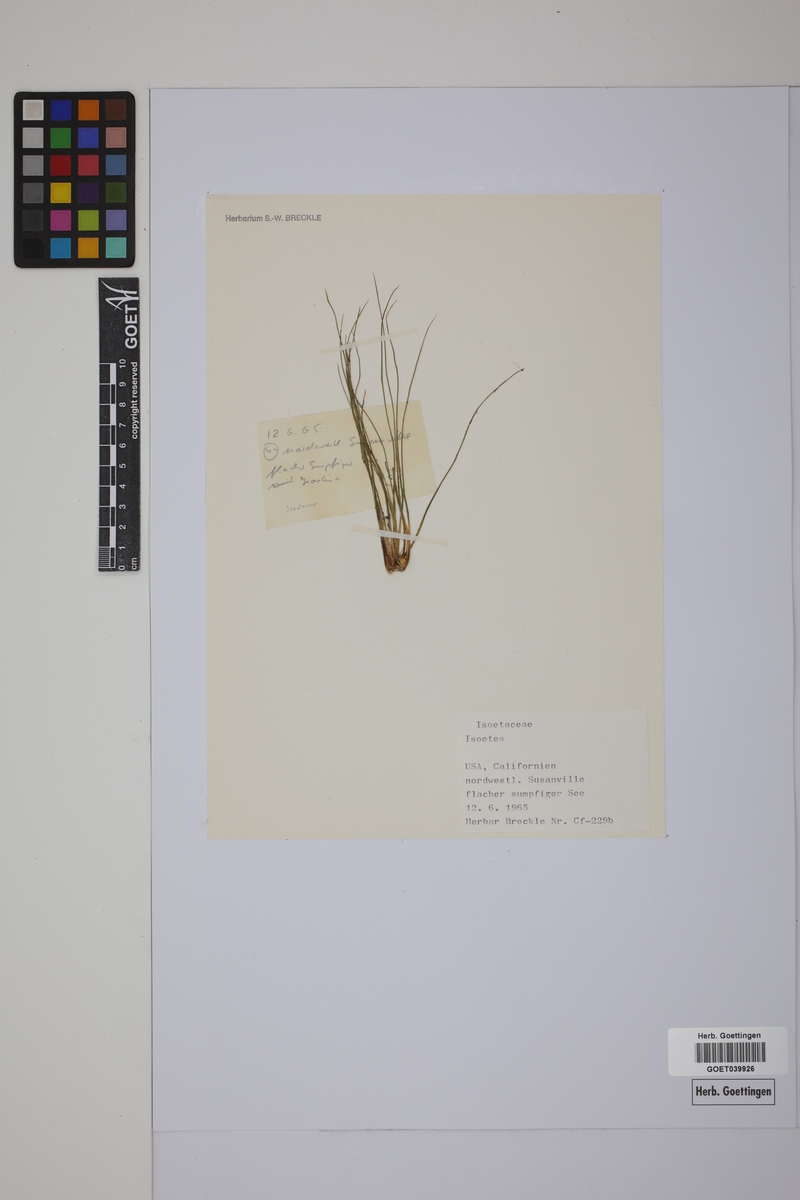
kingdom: Plantae
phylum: Tracheophyta
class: Lycopodiopsida
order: Isoetales
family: Isoetaceae
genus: Isoetes
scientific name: Isoetes
